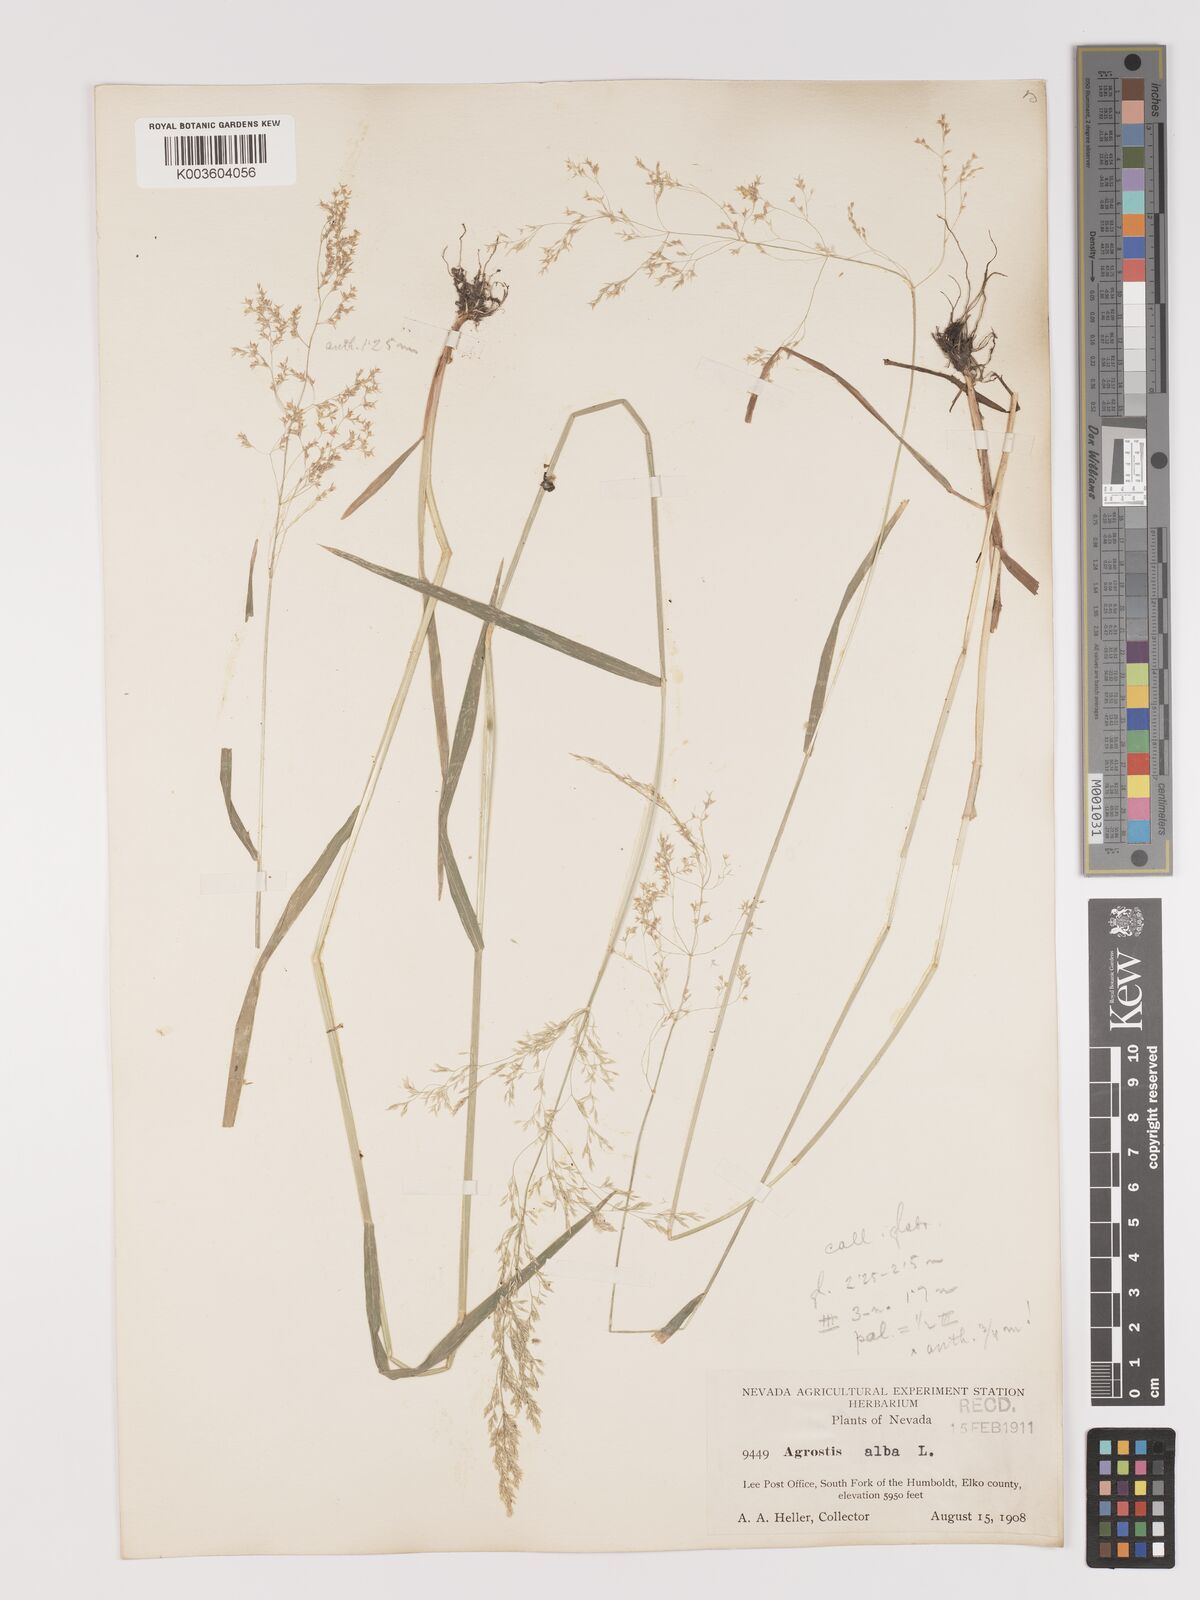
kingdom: Plantae
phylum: Tracheophyta
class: Liliopsida
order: Poales
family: Poaceae
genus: Agrostis
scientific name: Agrostis gigantea
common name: Black bent
